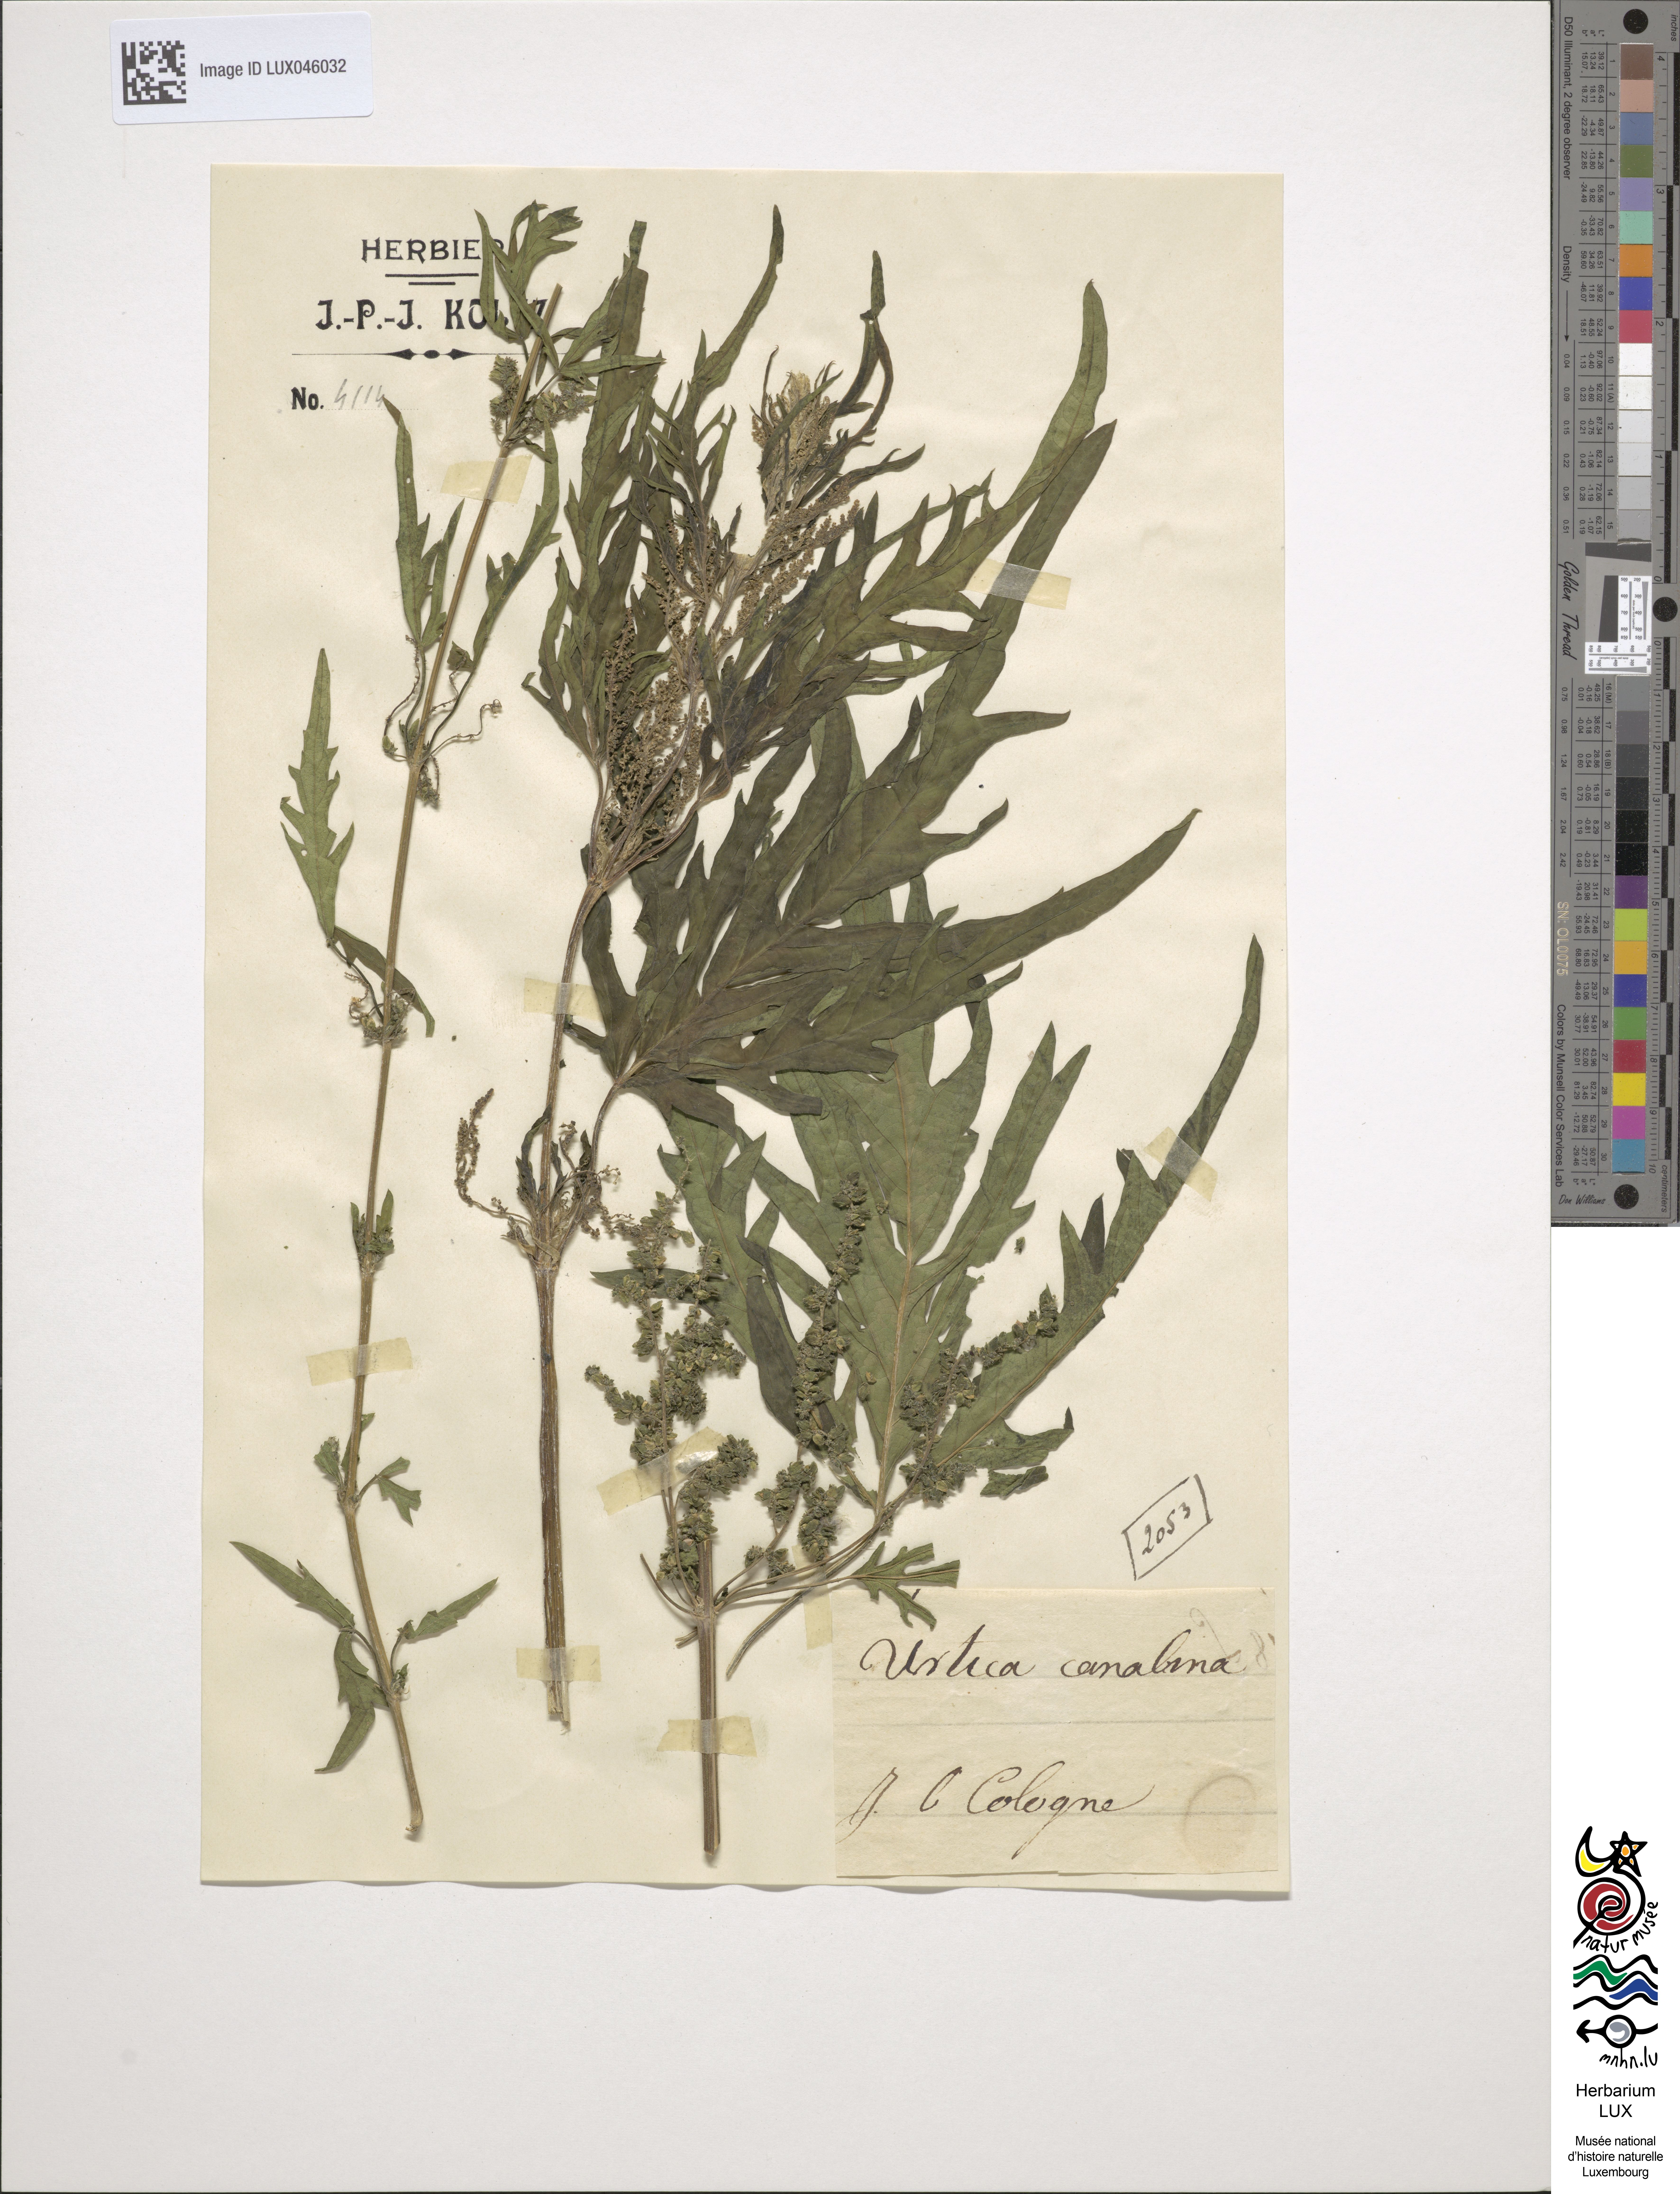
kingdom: Plantae
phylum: Tracheophyta
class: Magnoliopsida
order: Rosales
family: Urticaceae
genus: Urtica
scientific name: Urtica cannabina
